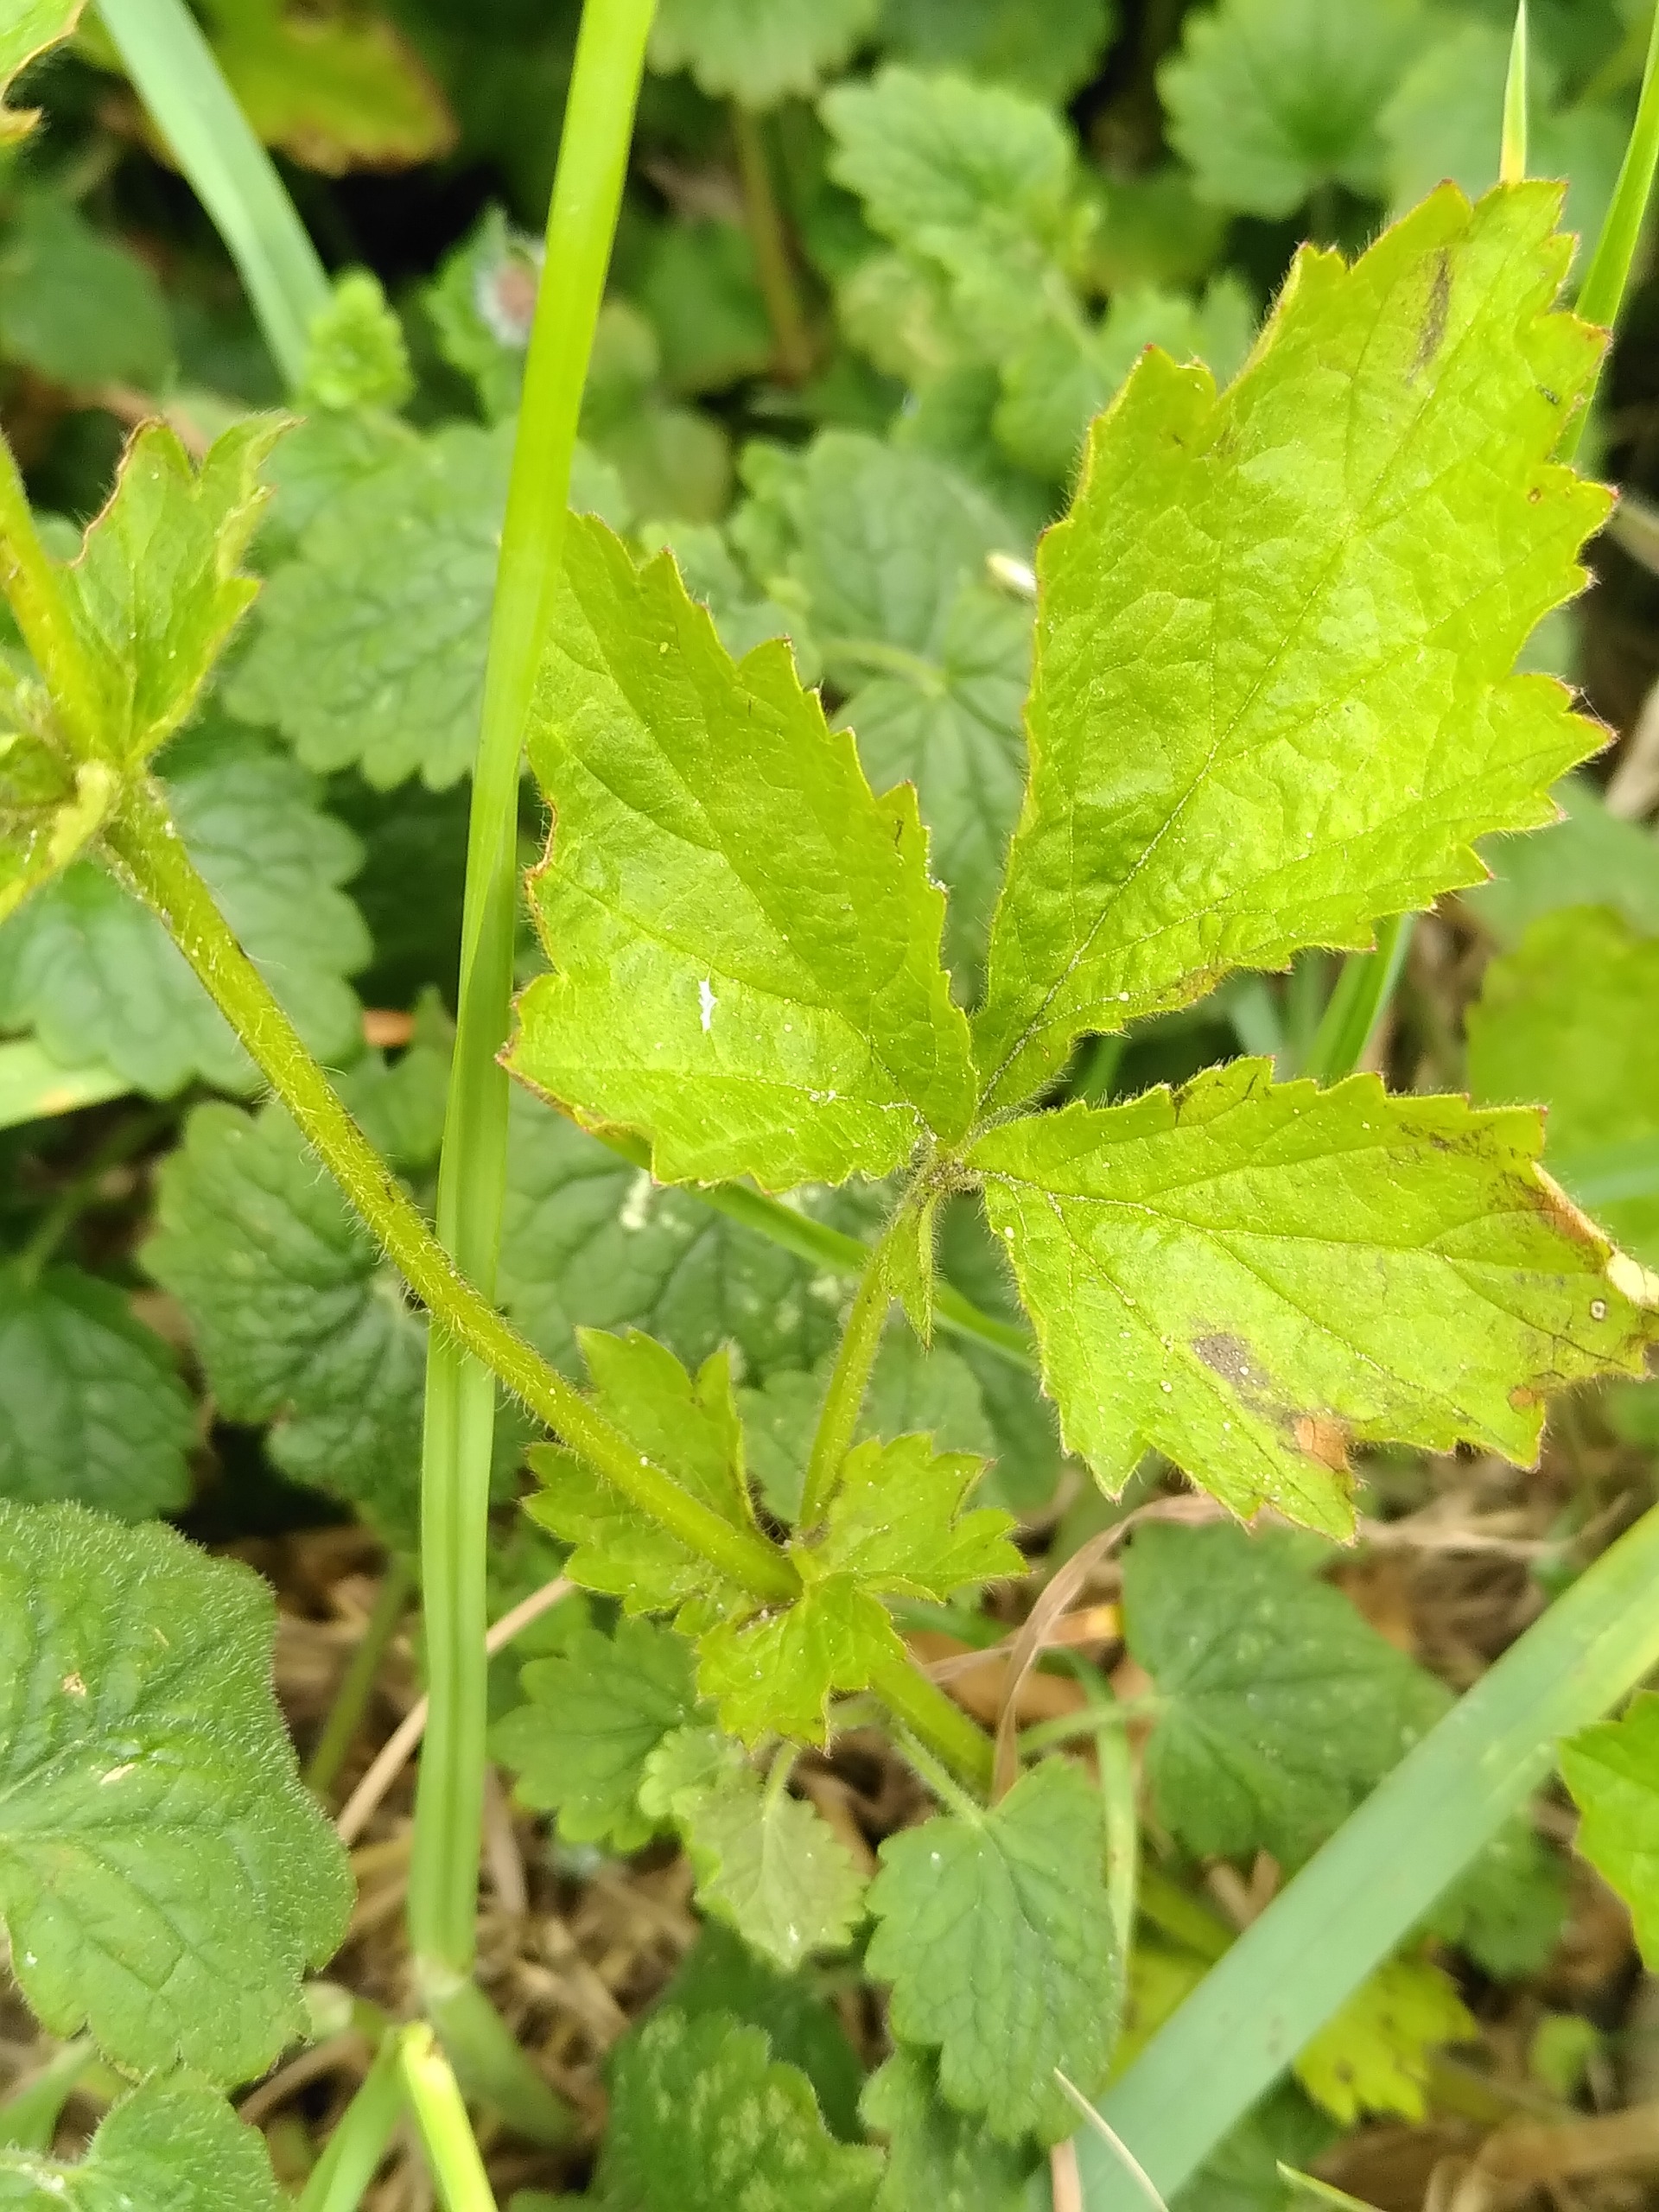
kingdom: Plantae
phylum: Tracheophyta
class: Magnoliopsida
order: Rosales
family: Rosaceae
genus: Geum
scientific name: Geum urbanum
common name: Feber-nellikerod
